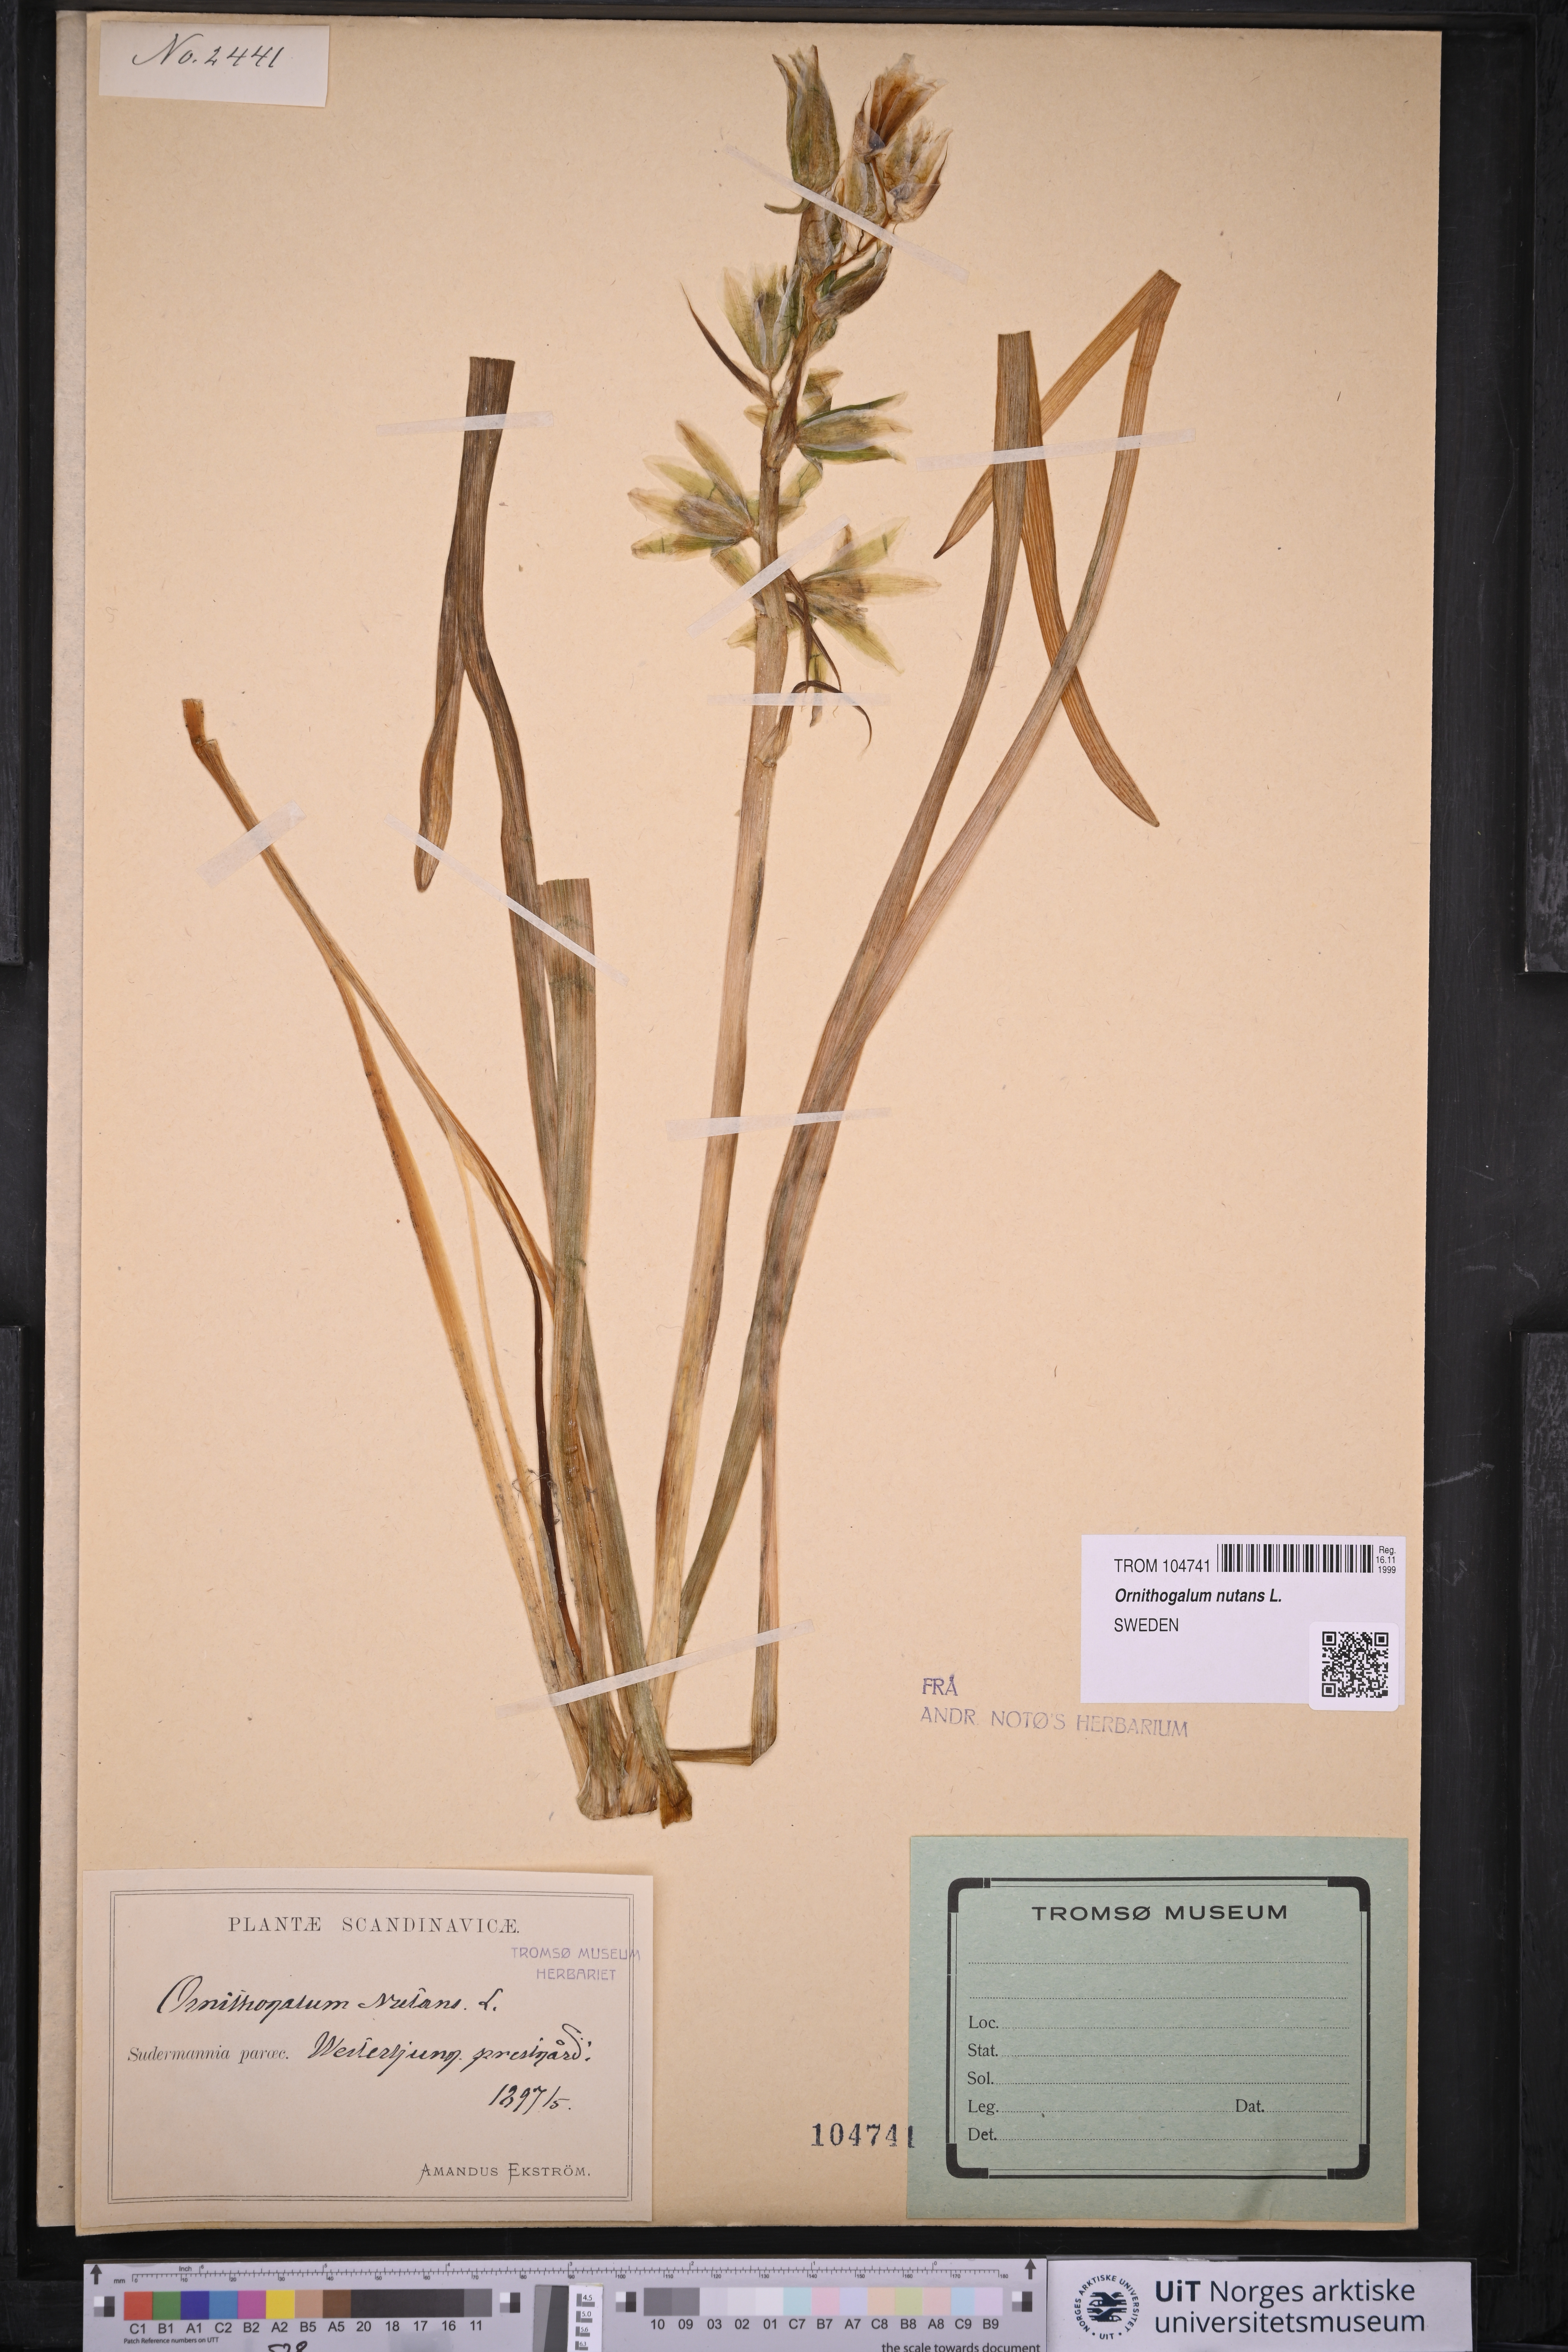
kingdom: Plantae
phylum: Tracheophyta
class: Liliopsida
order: Asparagales
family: Asparagaceae
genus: Ornithogalum
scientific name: Ornithogalum nutans
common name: Drooping star-of-bethlehem
